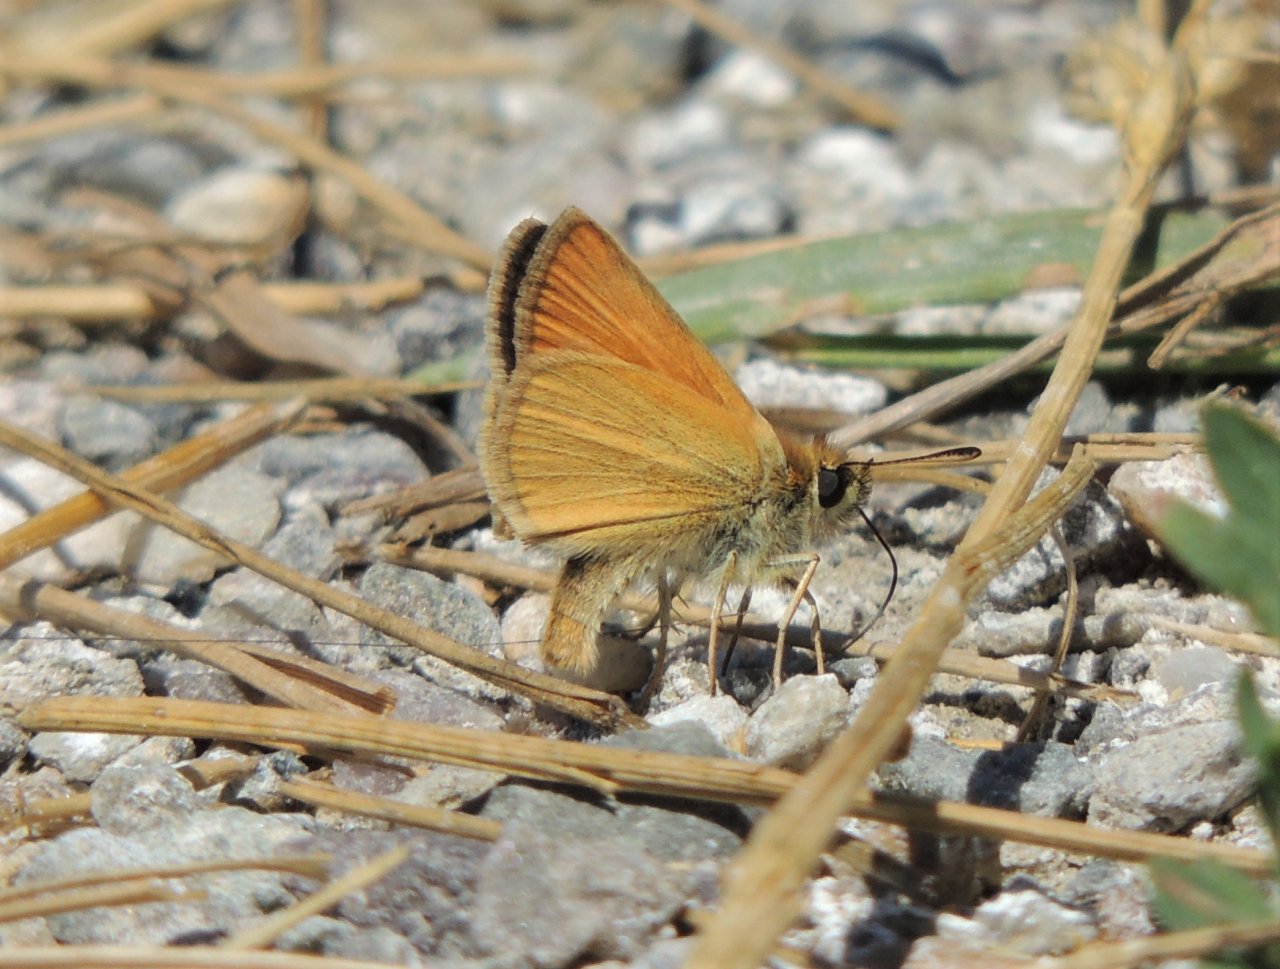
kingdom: Animalia
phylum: Arthropoda
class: Insecta
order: Lepidoptera
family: Hesperiidae
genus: Thymelicus
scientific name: Thymelicus lineola
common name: European Skipper
